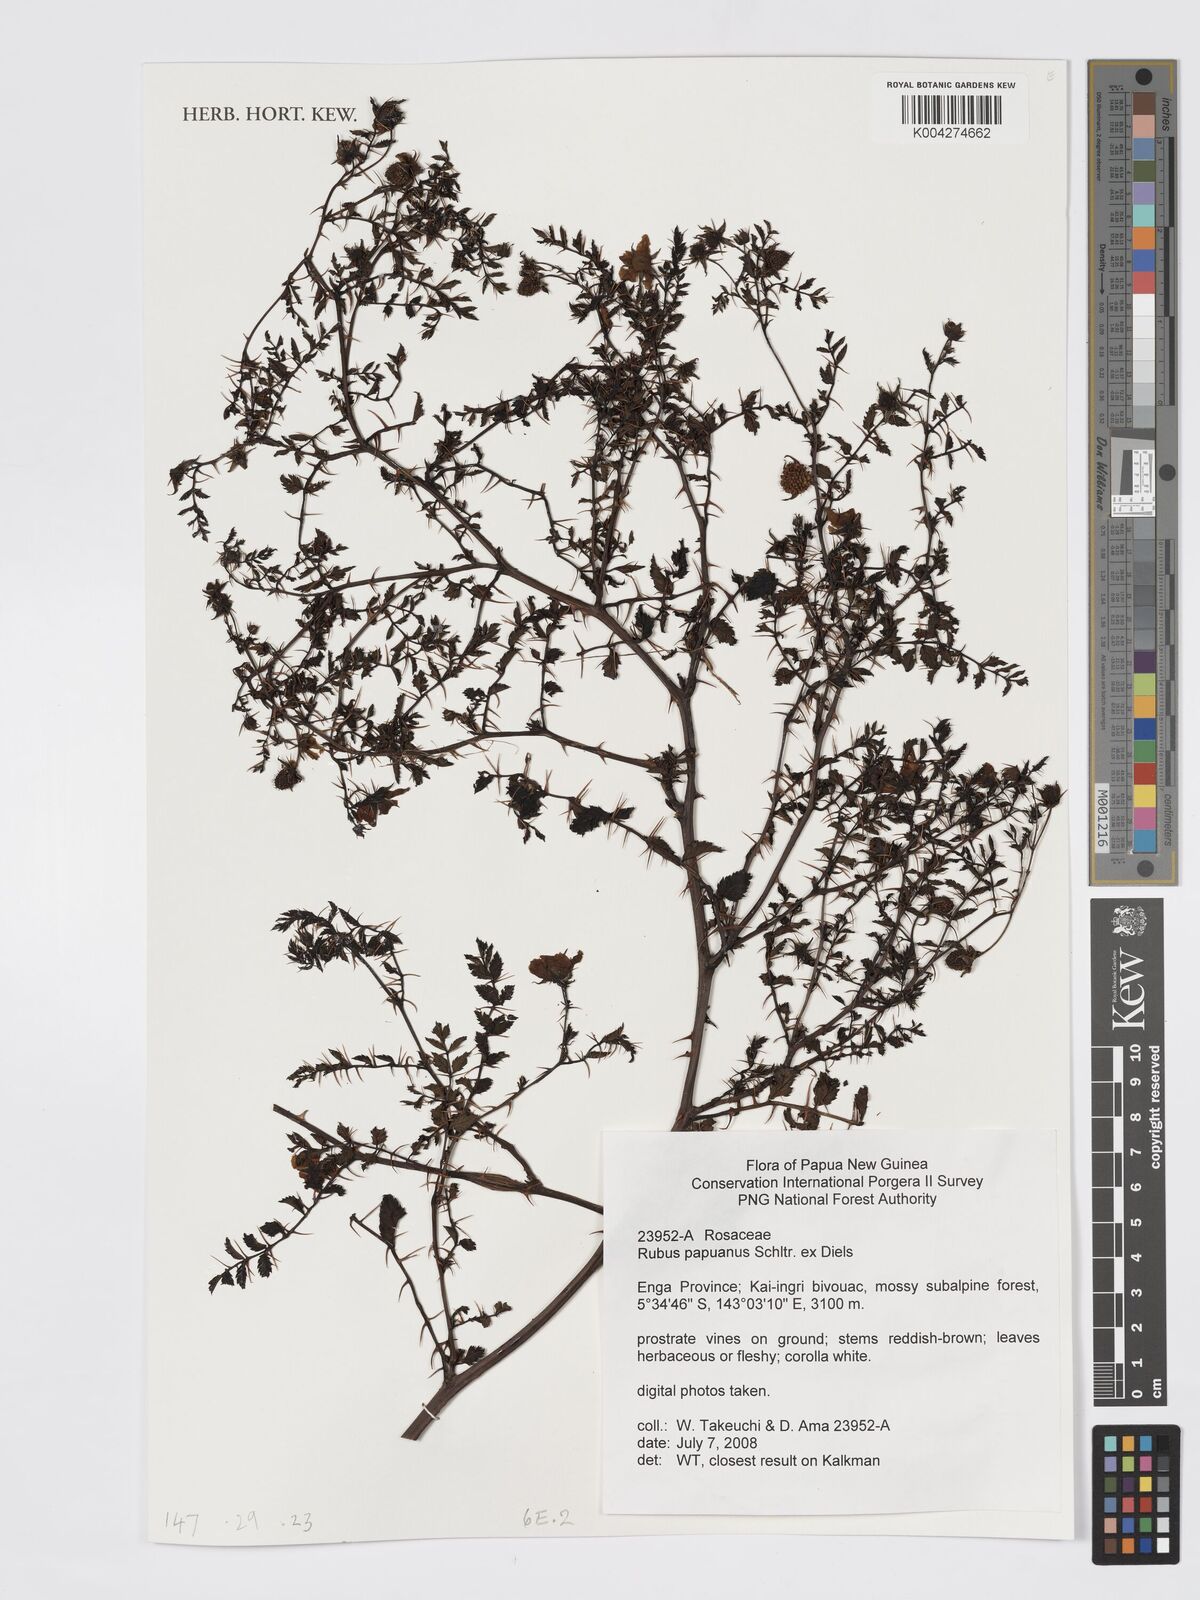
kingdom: Plantae
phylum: Tracheophyta
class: Magnoliopsida
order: Rosales
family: Rosaceae
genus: Rubus
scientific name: Rubus papuanus
